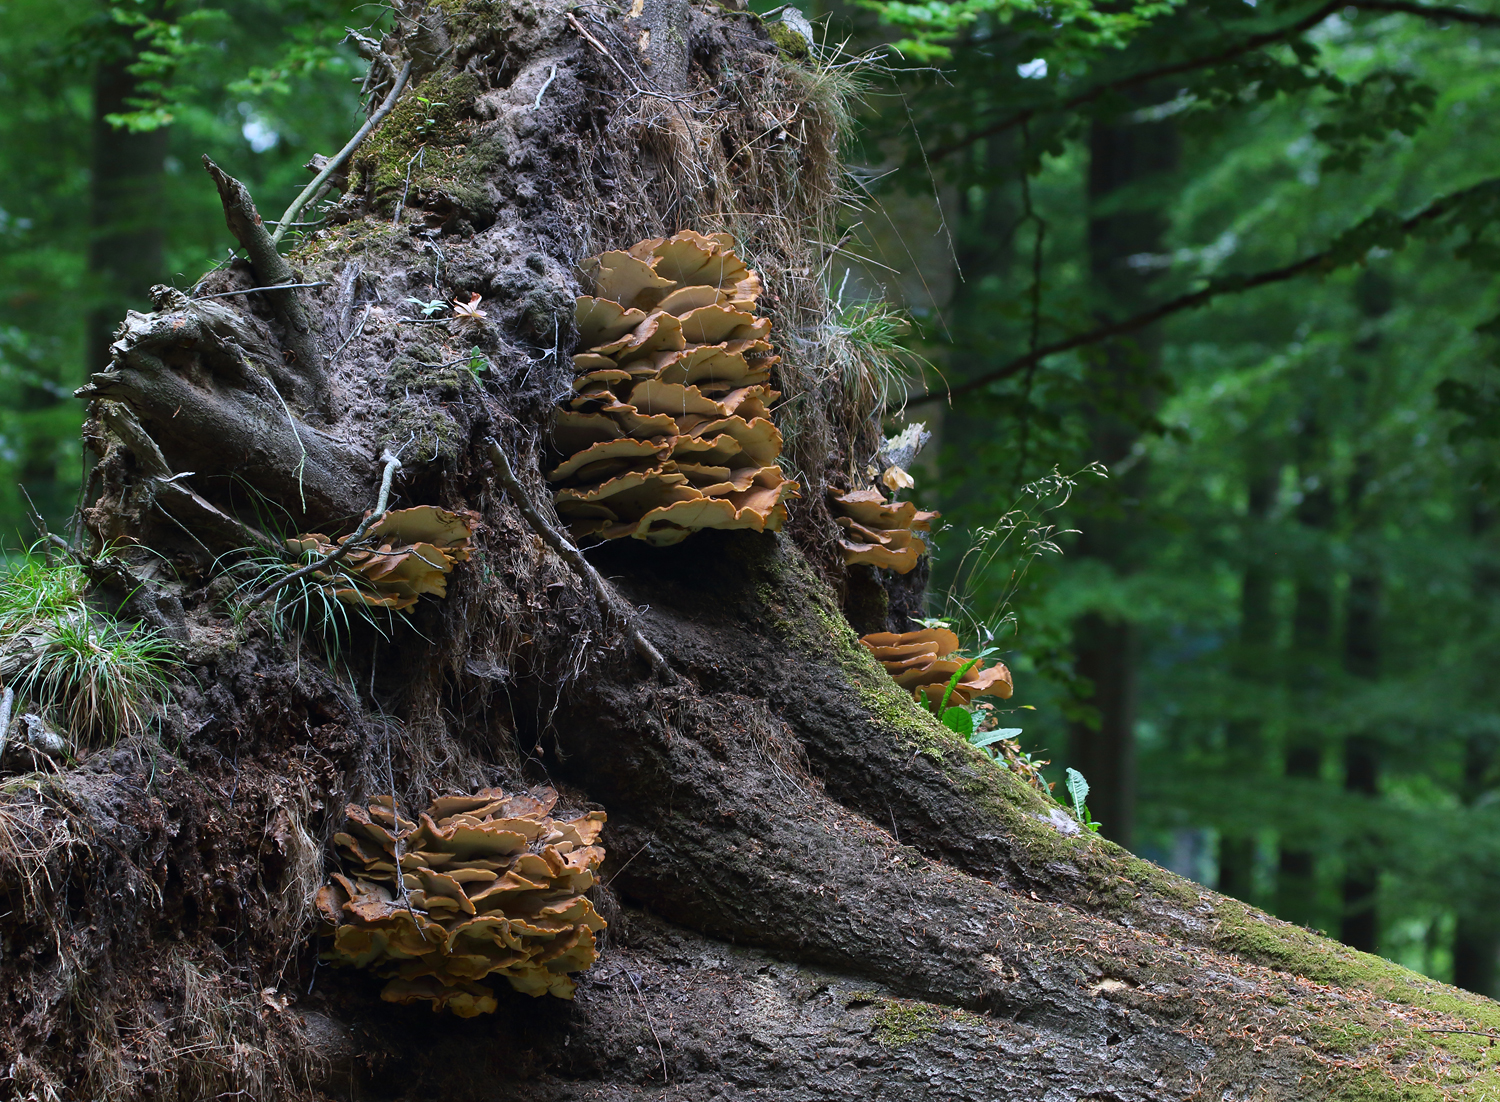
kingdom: Fungi
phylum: Basidiomycota
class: Agaricomycetes
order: Polyporales
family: Meripilaceae
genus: Meripilus
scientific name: Meripilus giganteus
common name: kæmpeporesvamp
